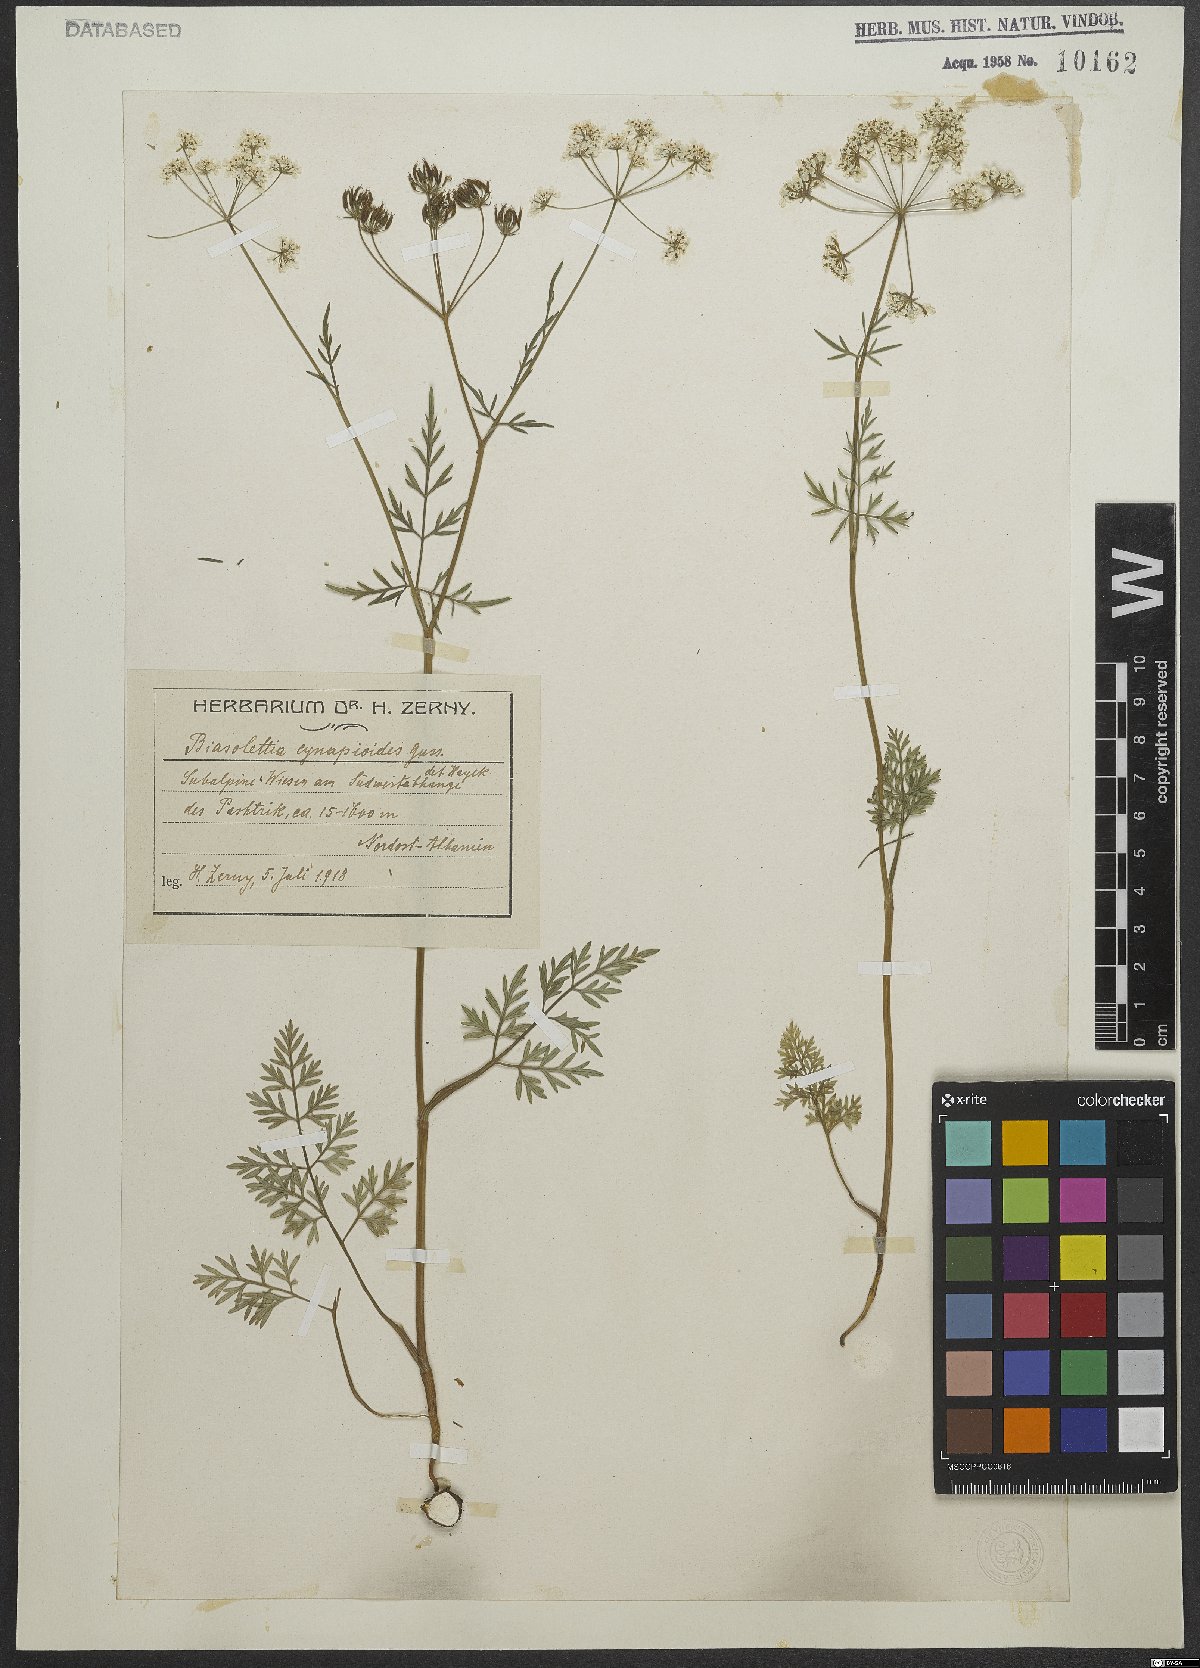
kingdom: Plantae
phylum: Tracheophyta
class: Magnoliopsida
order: Apiales
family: Apiaceae
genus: Geocaryum
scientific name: Geocaryum cynapioides
